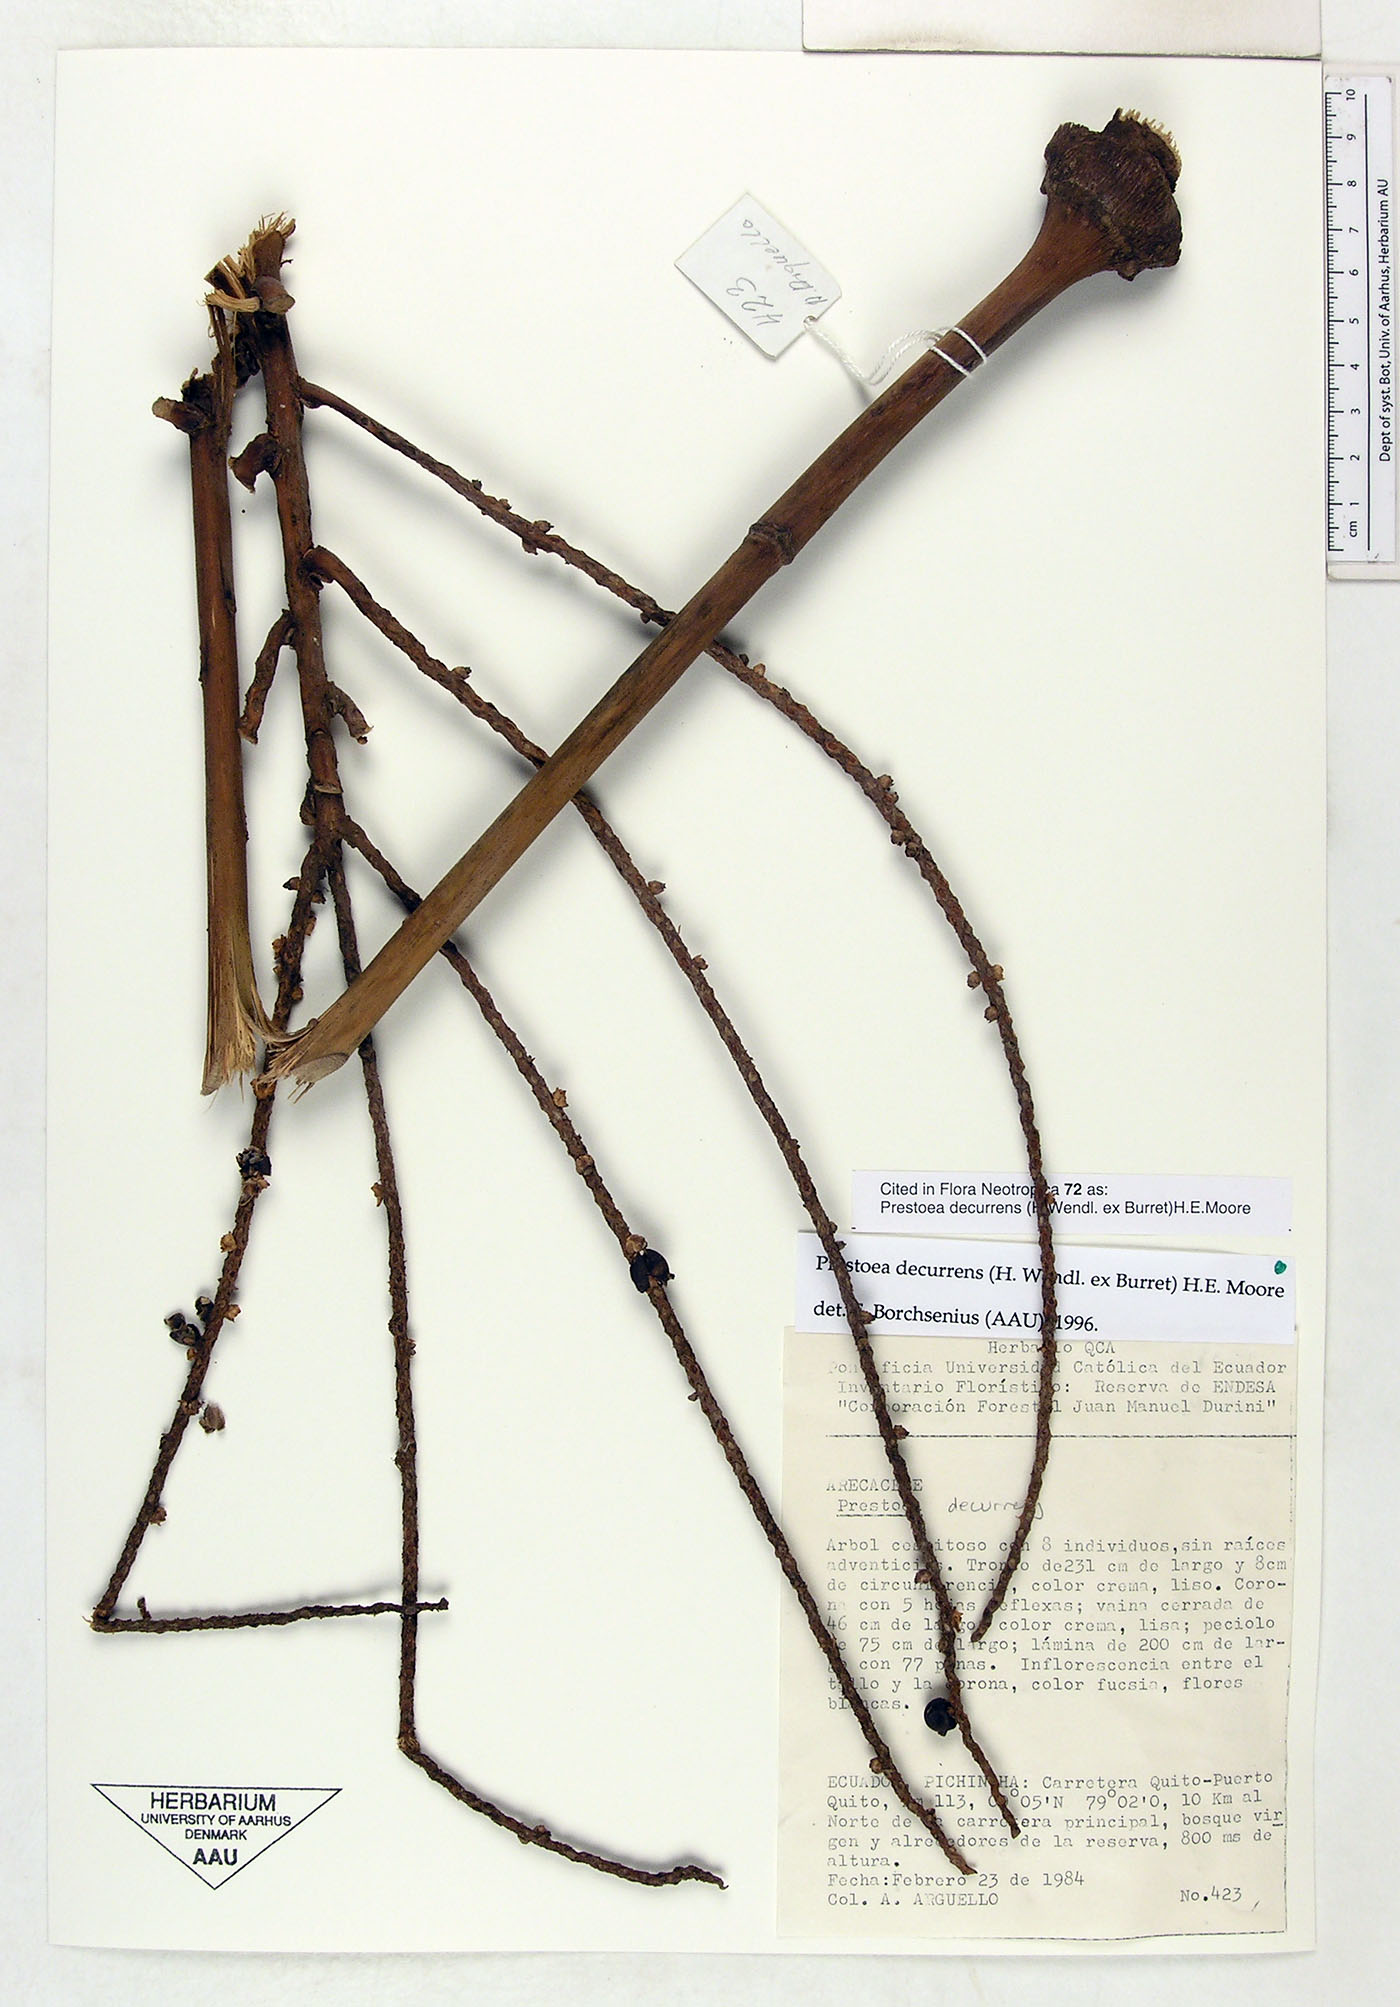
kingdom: Plantae
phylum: Tracheophyta
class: Liliopsida
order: Arecales
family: Arecaceae
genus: Prestoea
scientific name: Prestoea decurrens
